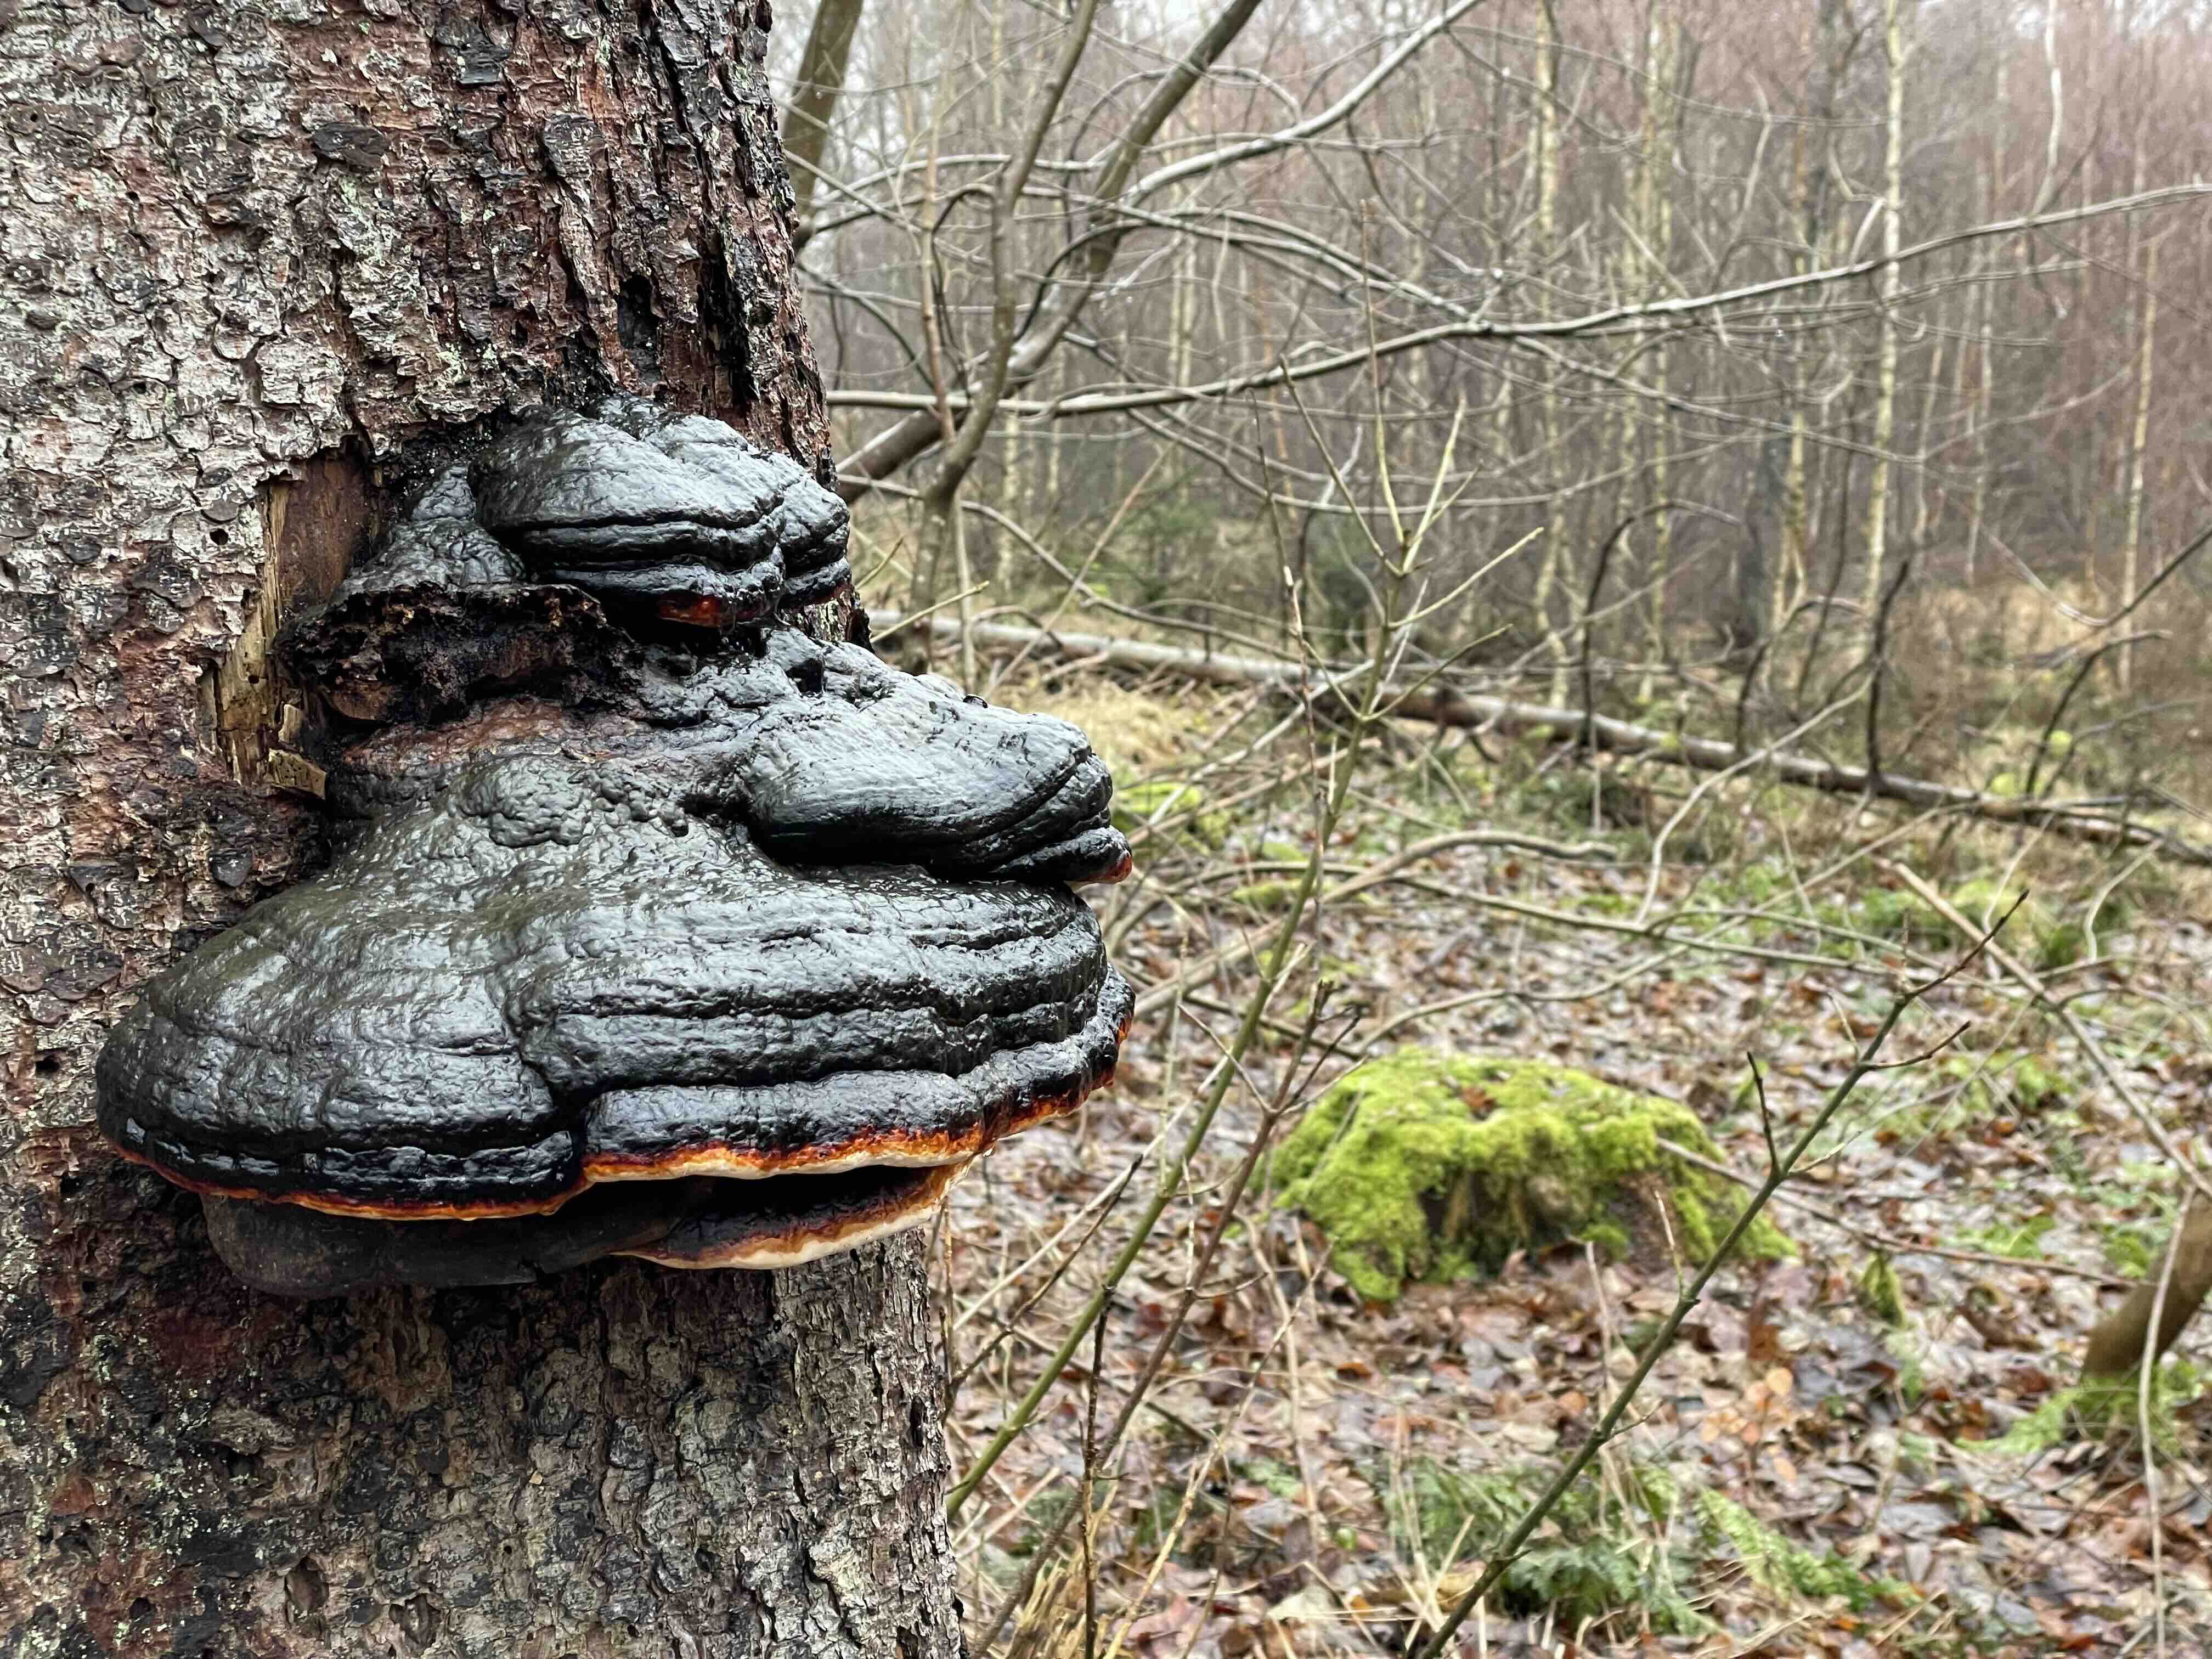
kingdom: Fungi
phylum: Basidiomycota
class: Agaricomycetes
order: Polyporales
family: Fomitopsidaceae
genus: Fomitopsis
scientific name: Fomitopsis pinicola
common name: randbæltet hovporesvamp
